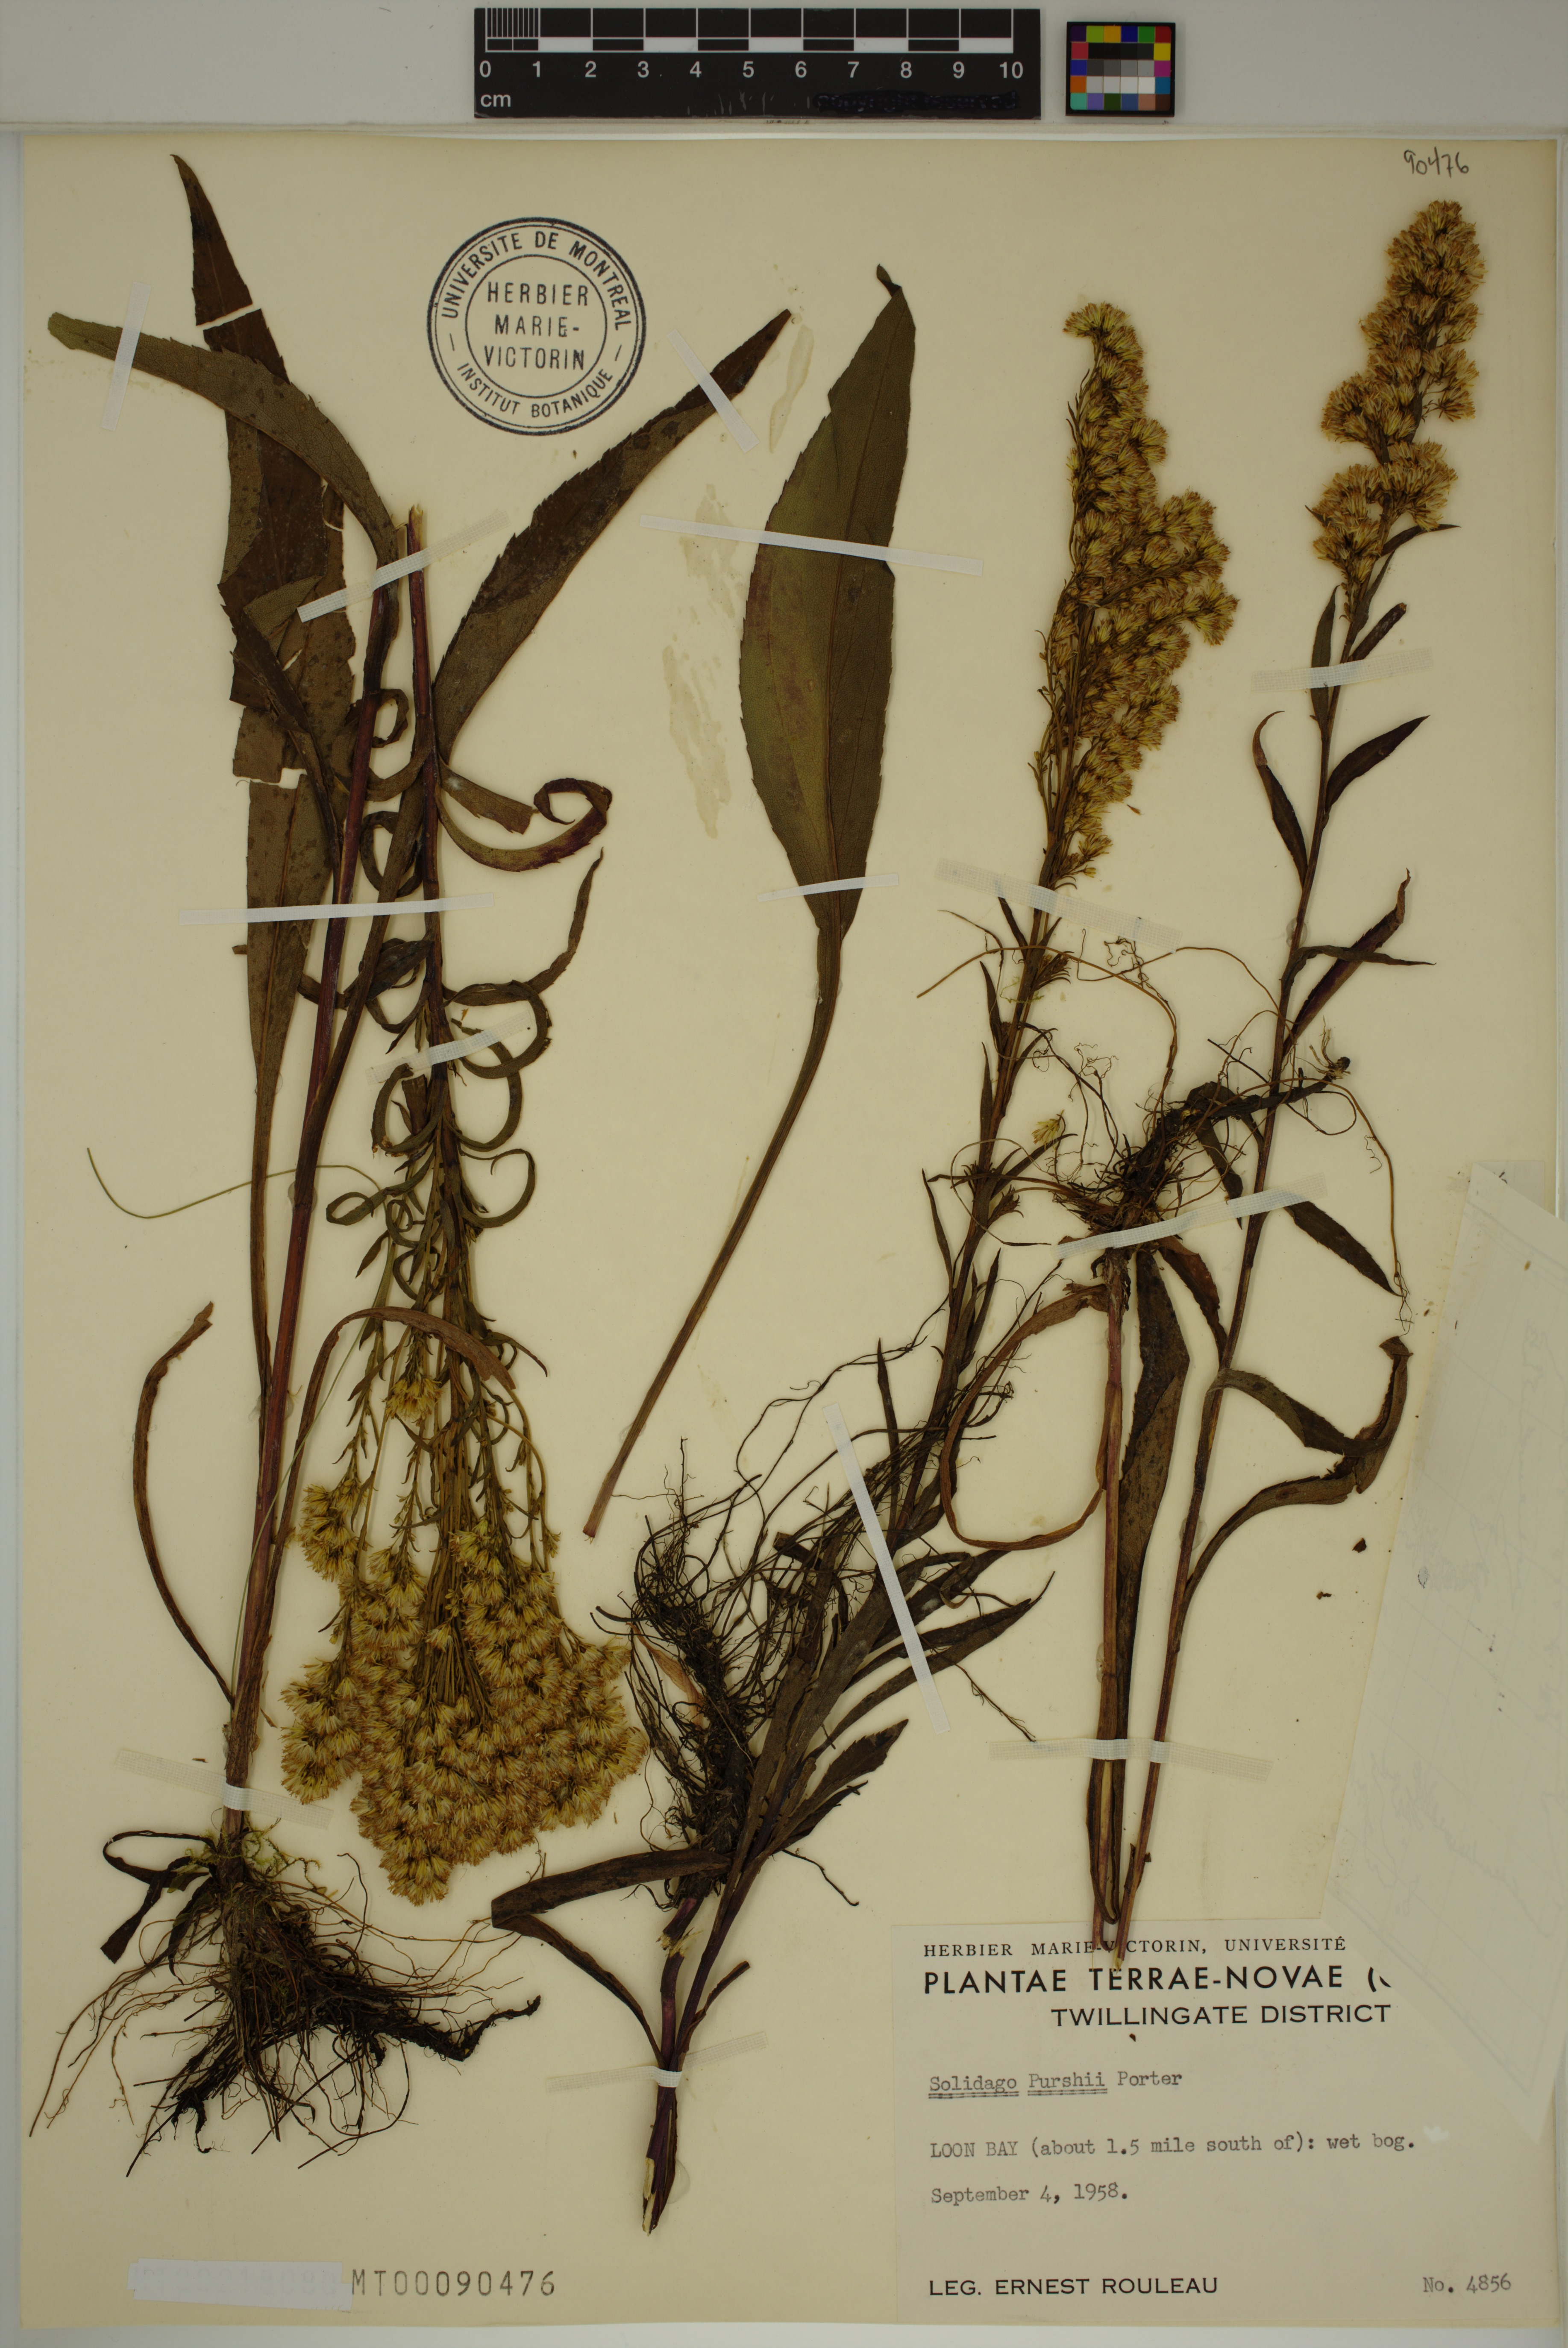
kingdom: Plantae
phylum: Tracheophyta
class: Magnoliopsida
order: Asterales
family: Asteraceae
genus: Solidago
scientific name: Solidago uliginosa
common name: Bog goldenrod
